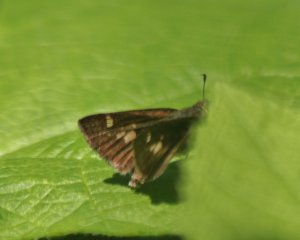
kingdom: Animalia
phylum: Arthropoda
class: Insecta
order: Lepidoptera
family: Hesperiidae
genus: Vernia
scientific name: Vernia verna
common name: Little Glassywing
